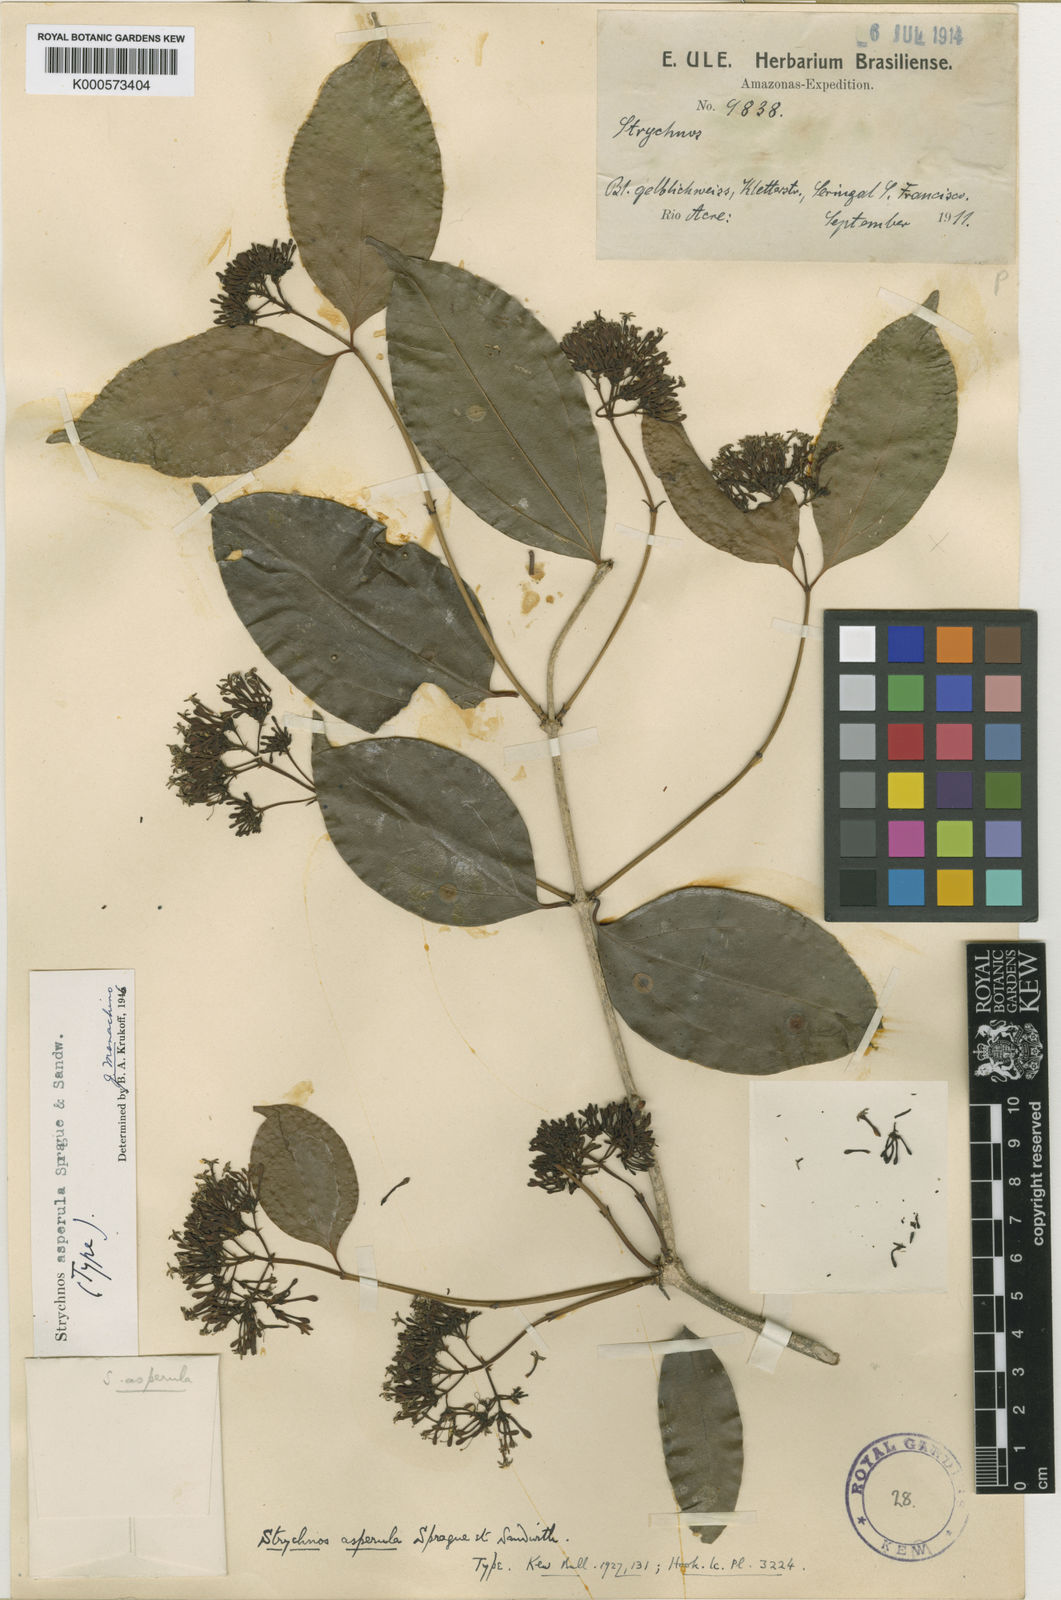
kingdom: Plantae
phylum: Tracheophyta
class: Magnoliopsida
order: Gentianales
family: Loganiaceae
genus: Strychnos
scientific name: Strychnos asperula
